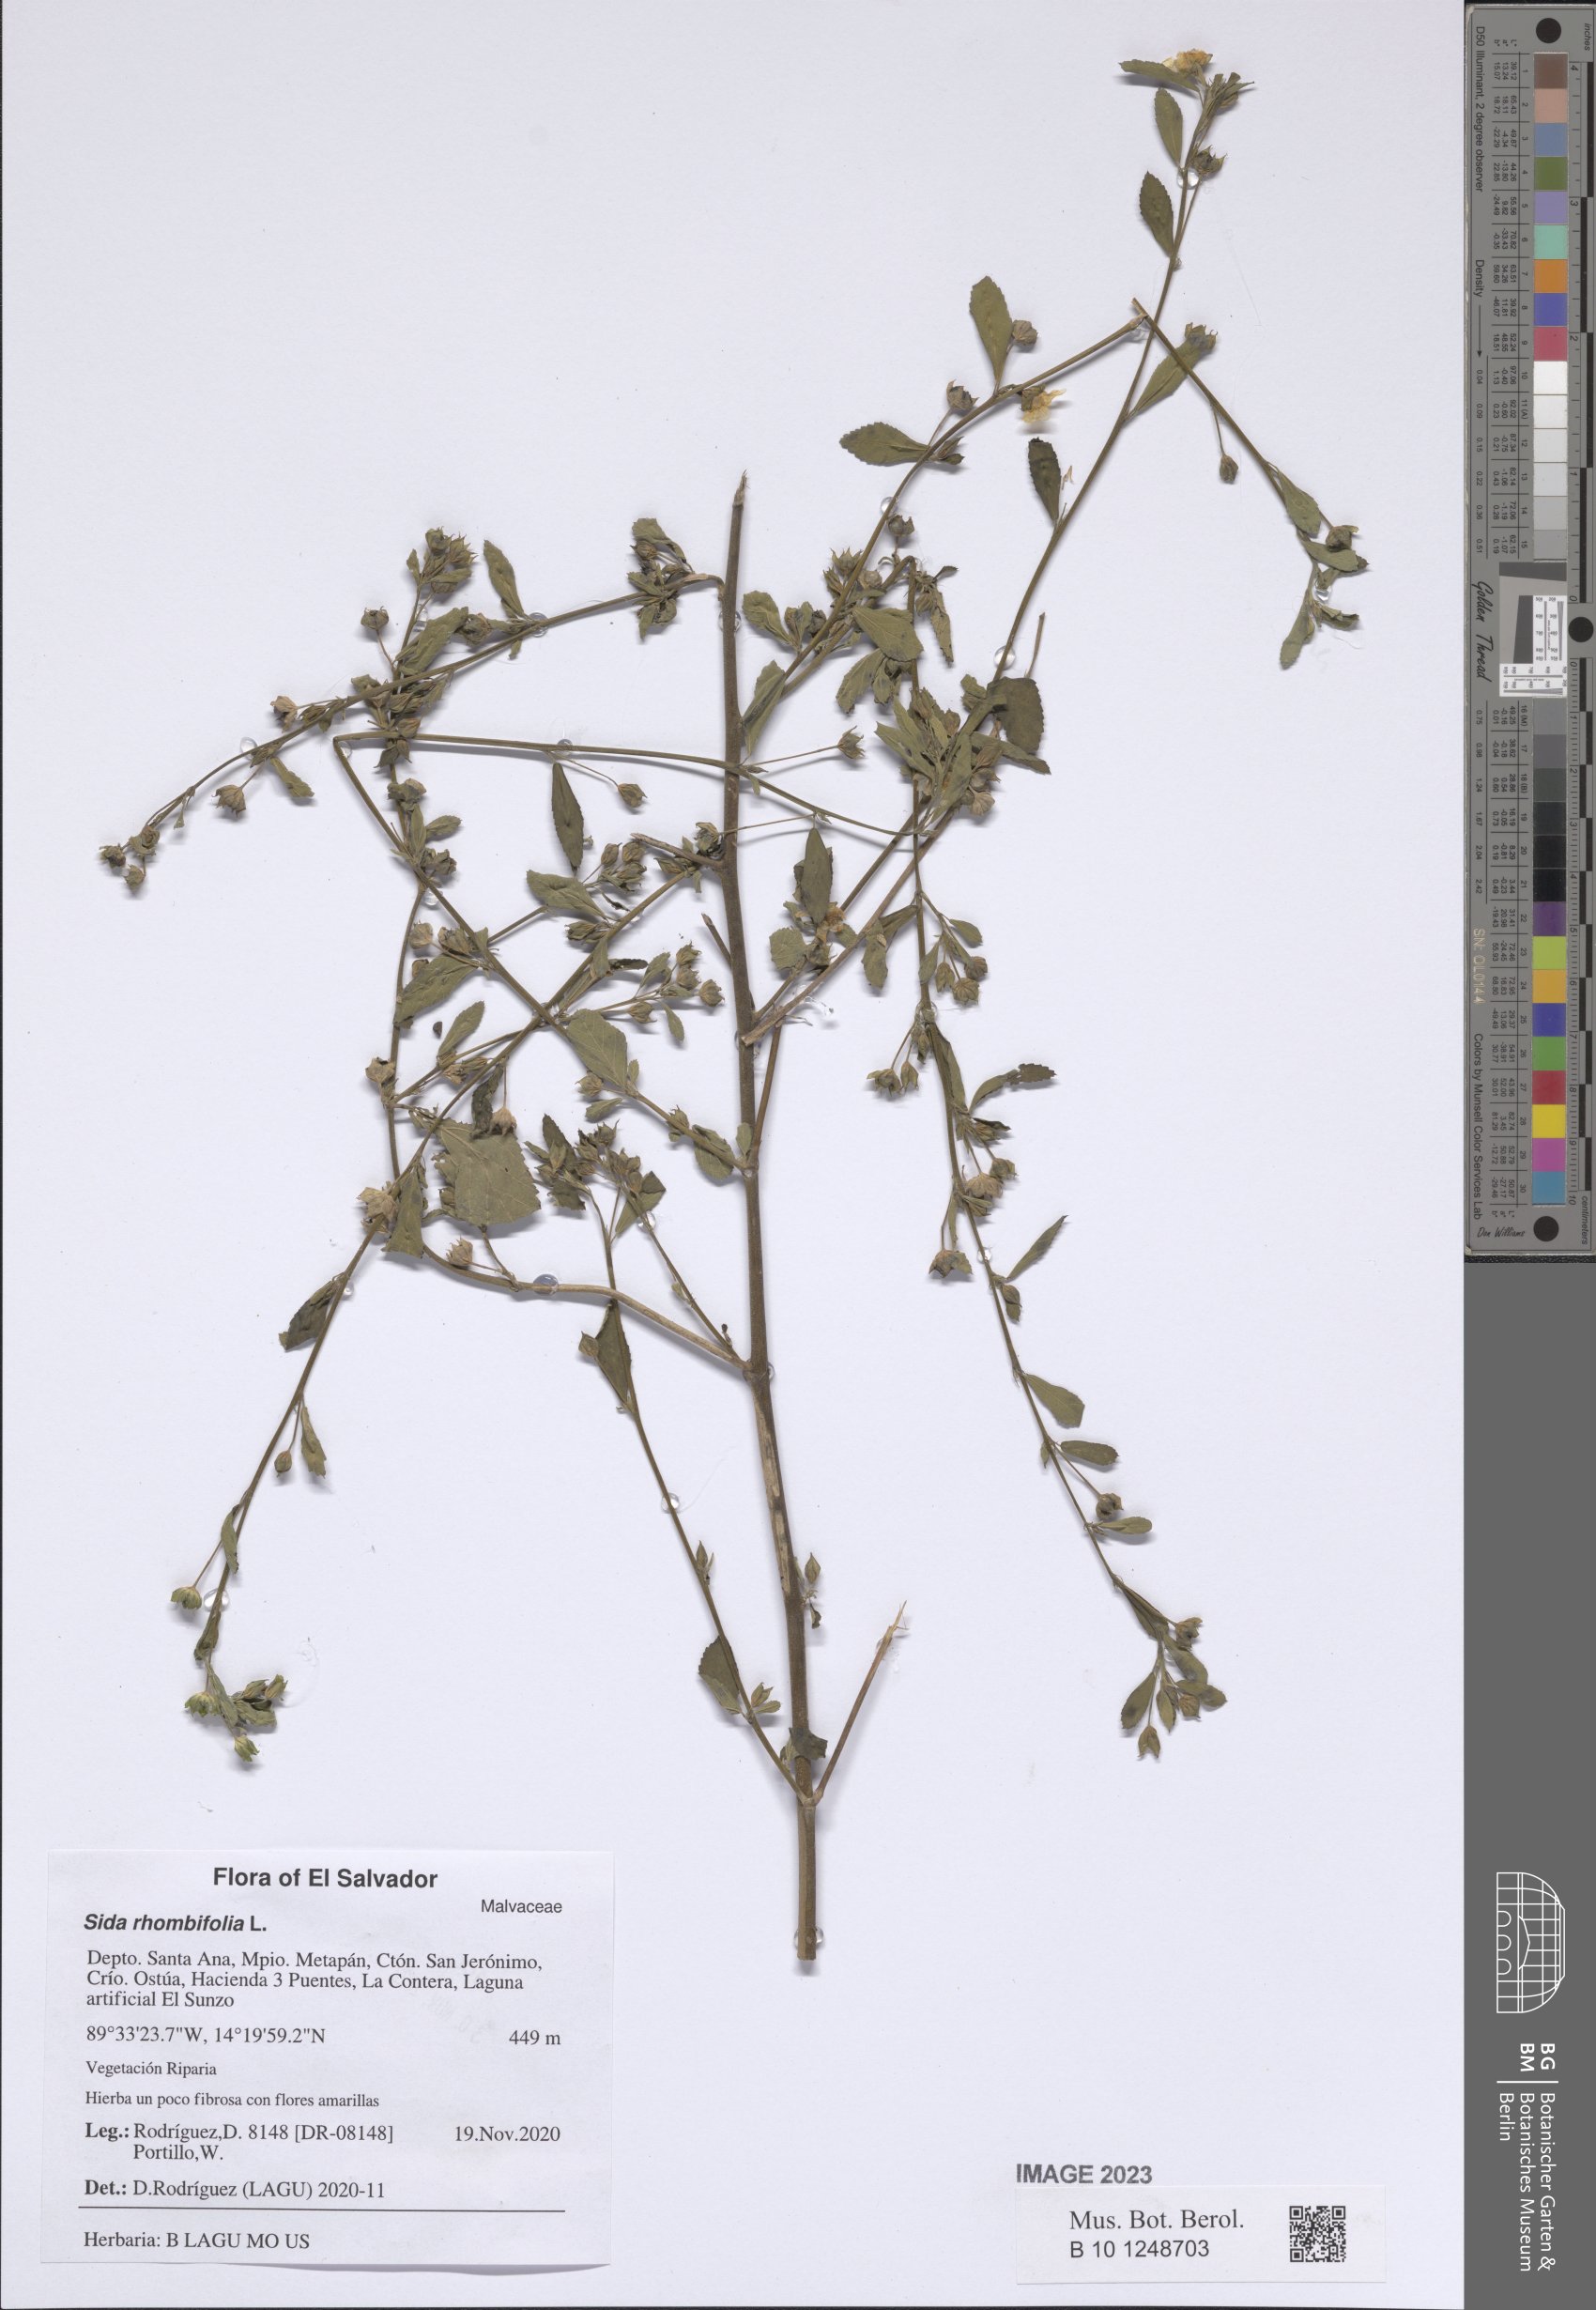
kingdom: Plantae
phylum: Tracheophyta
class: Magnoliopsida
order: Malvales
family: Malvaceae
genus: Sida
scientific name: Sida rhombifolia
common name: Queensland-hemp
